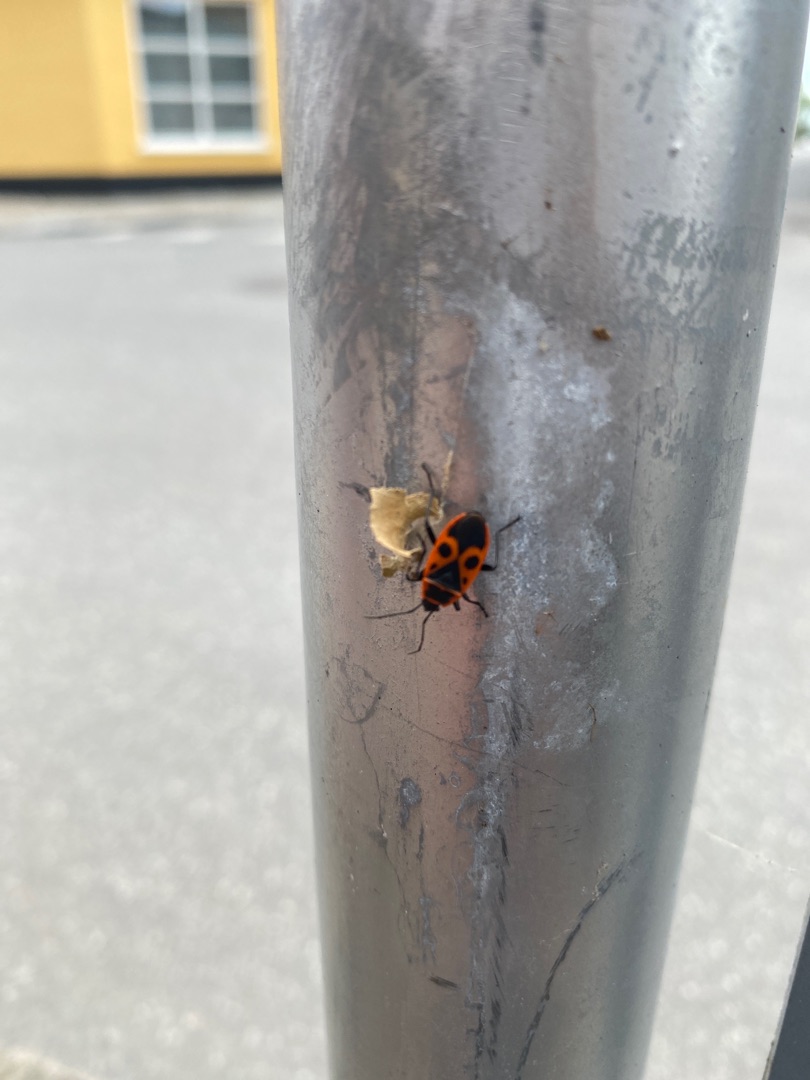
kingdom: Animalia
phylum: Arthropoda
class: Insecta
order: Hemiptera
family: Pyrrhocoridae
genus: Pyrrhocoris
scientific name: Pyrrhocoris apterus
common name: Ildtæge
